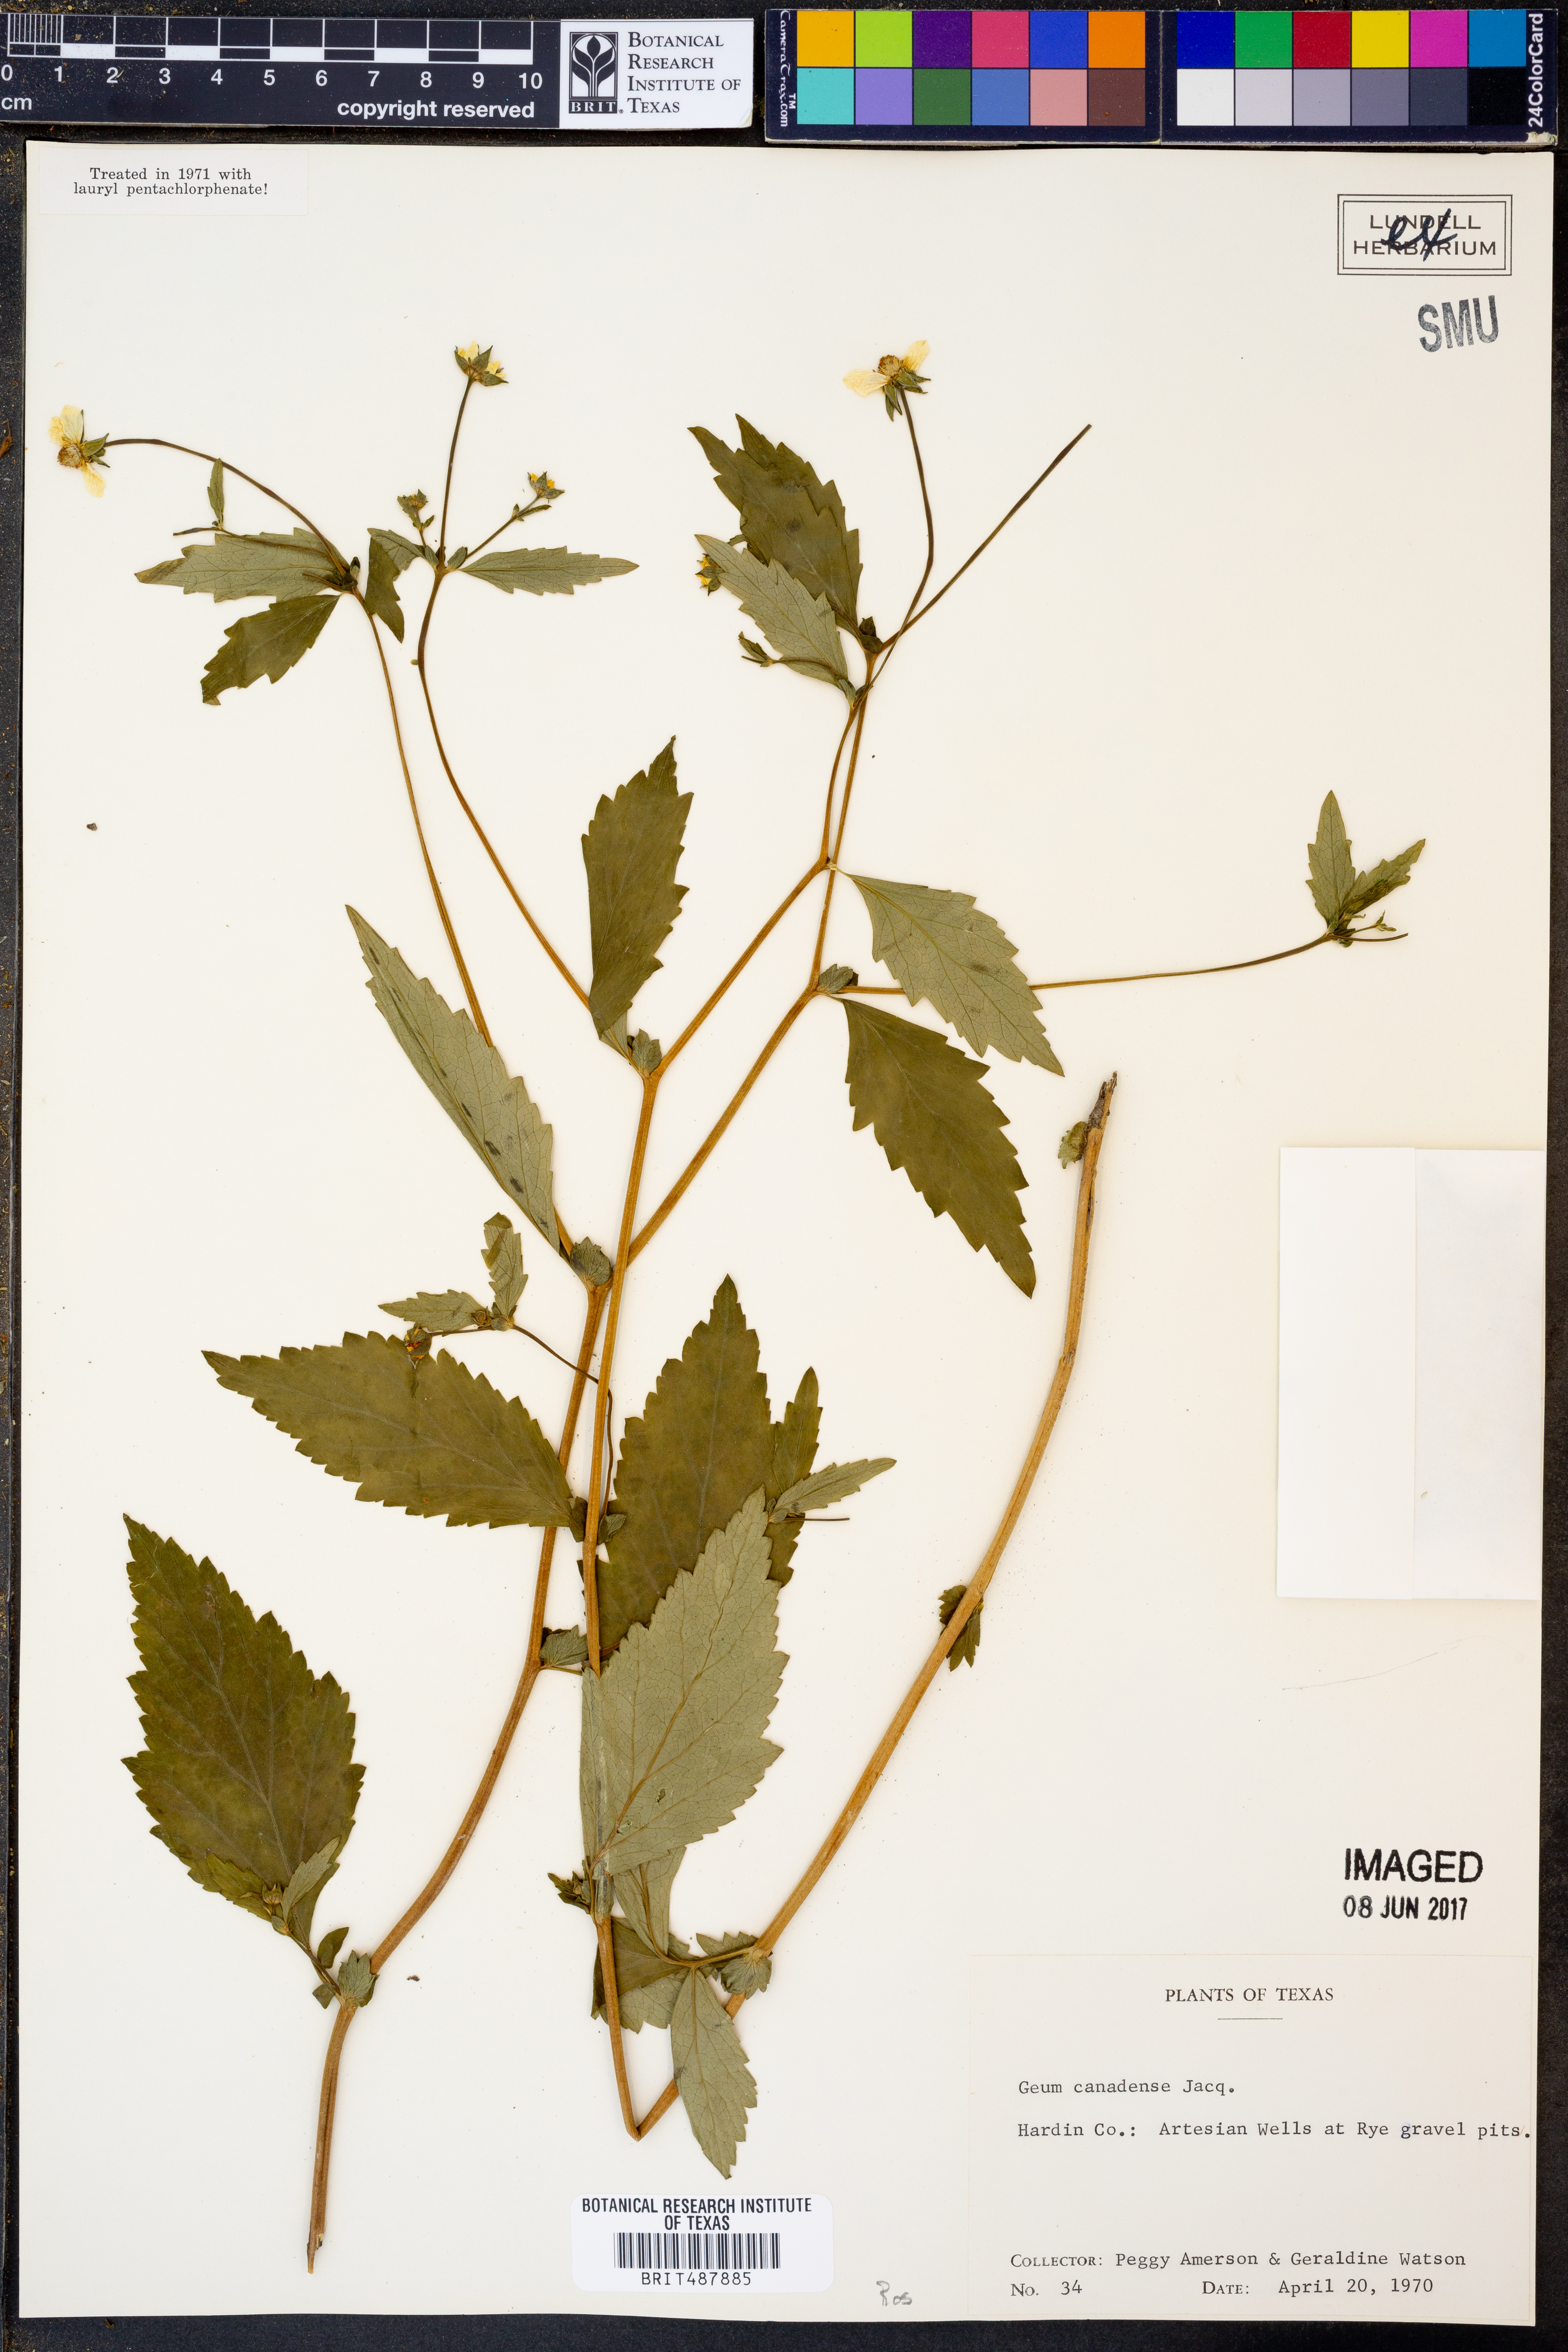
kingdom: Plantae
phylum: Tracheophyta
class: Magnoliopsida
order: Rosales
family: Rosaceae
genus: Geum
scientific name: Geum canadense
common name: White avens
